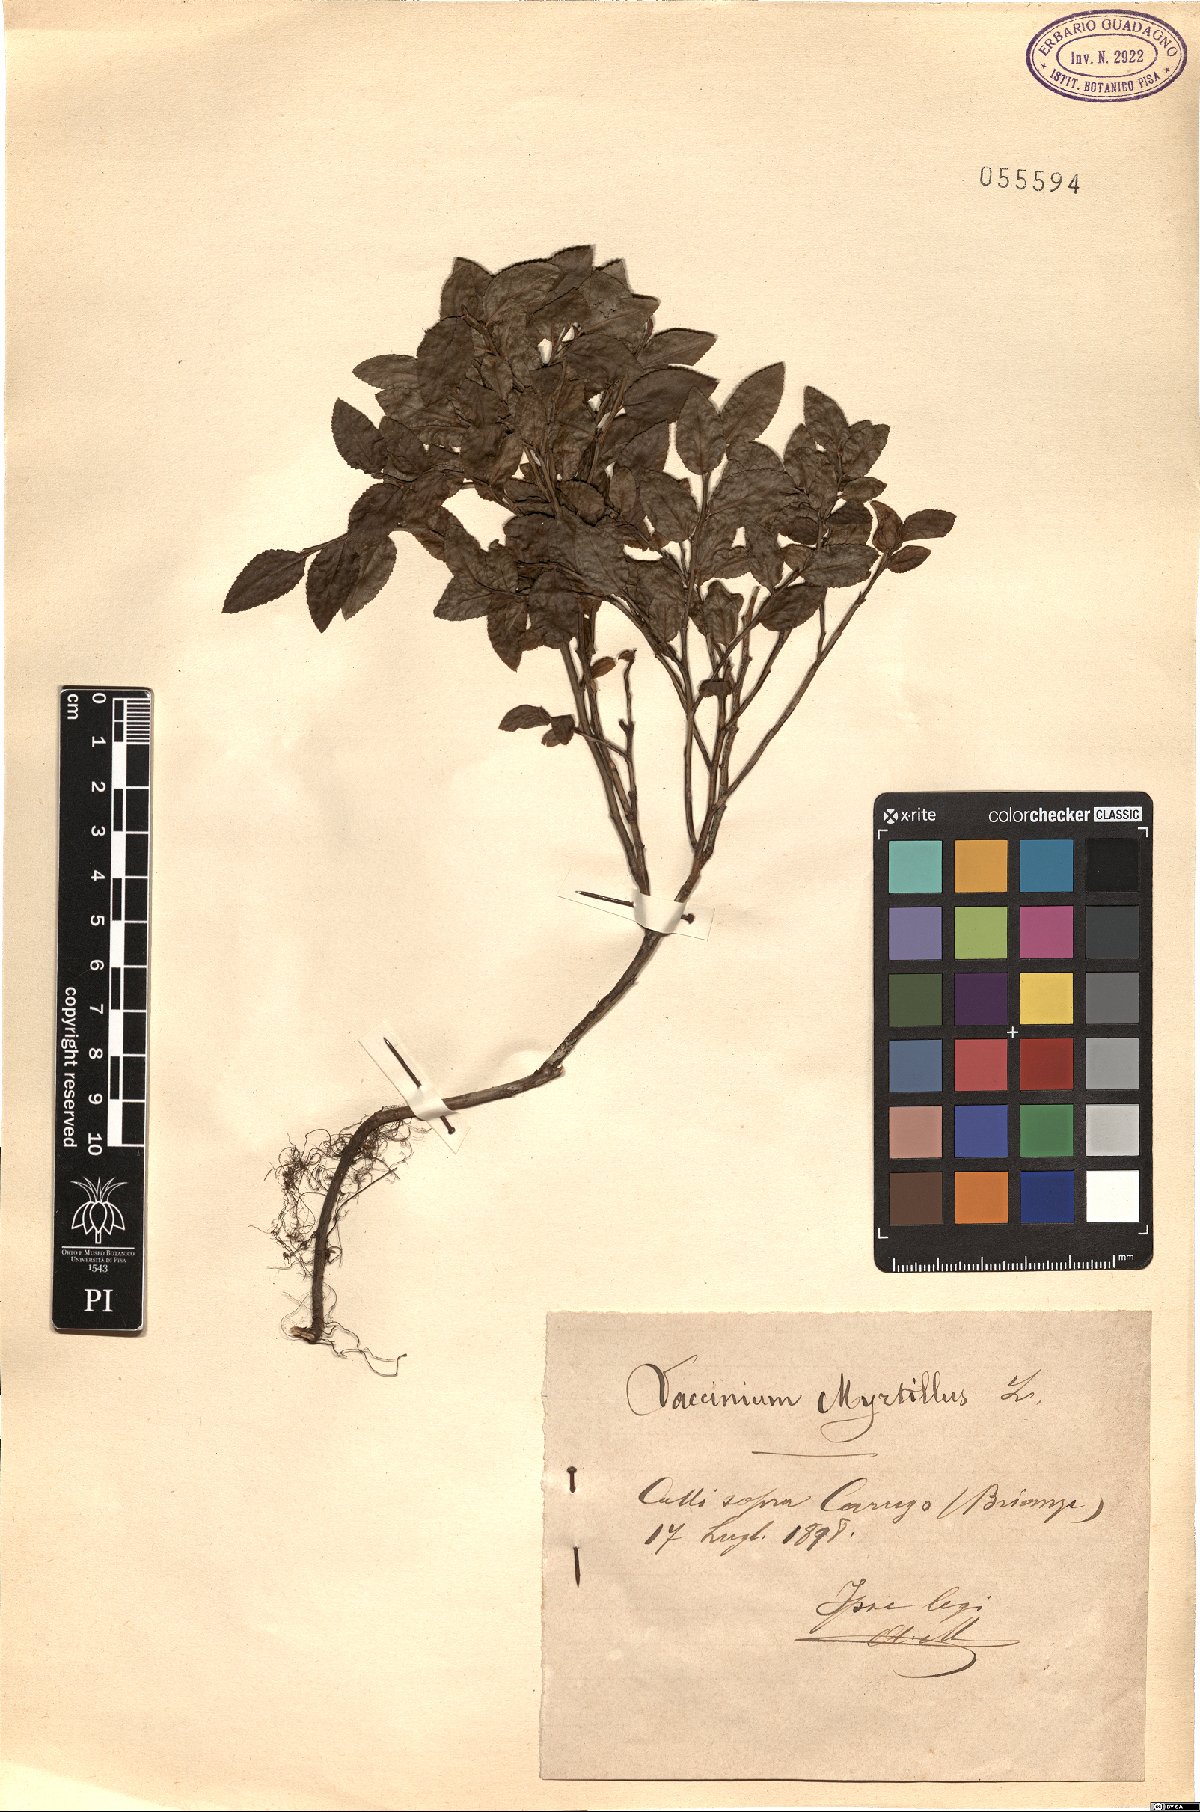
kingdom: Plantae
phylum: Tracheophyta
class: Magnoliopsida
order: Ericales
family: Ericaceae
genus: Vaccinium
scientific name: Vaccinium myrtillus
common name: Bilberry
